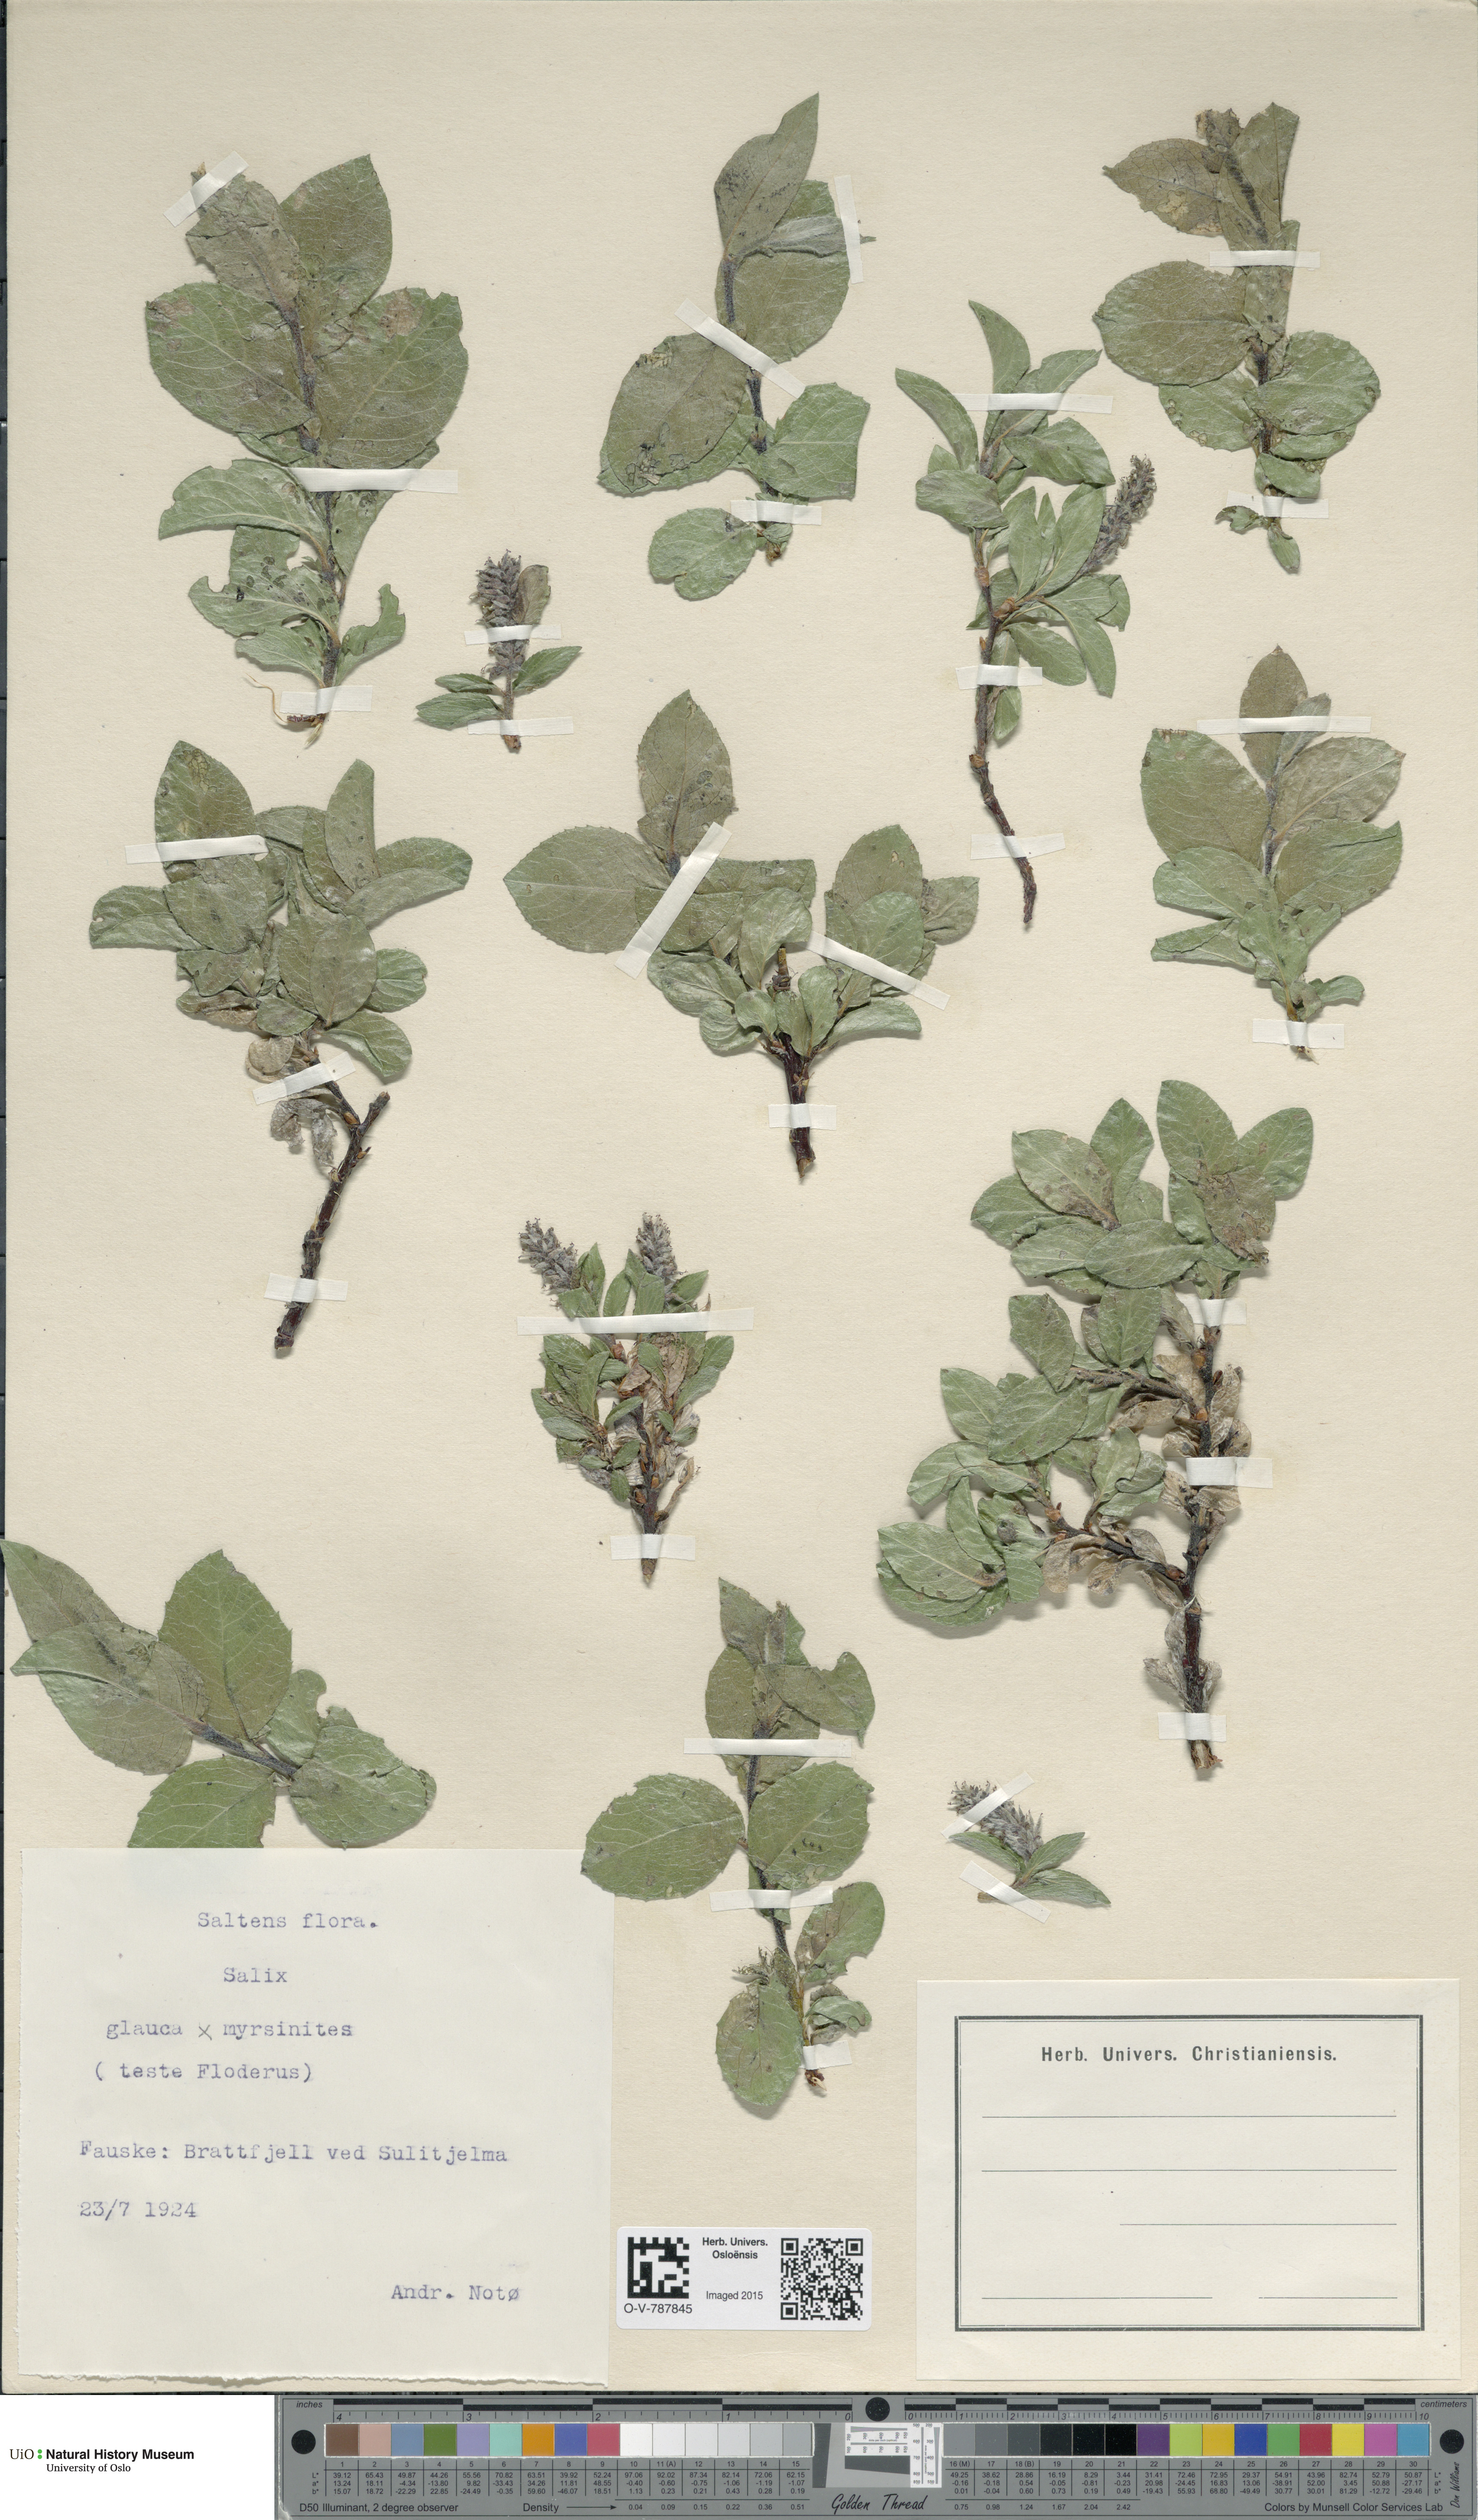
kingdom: Plantae
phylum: Tracheophyta
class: Magnoliopsida
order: Malpighiales
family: Salicaceae
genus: Salix
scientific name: Salix
